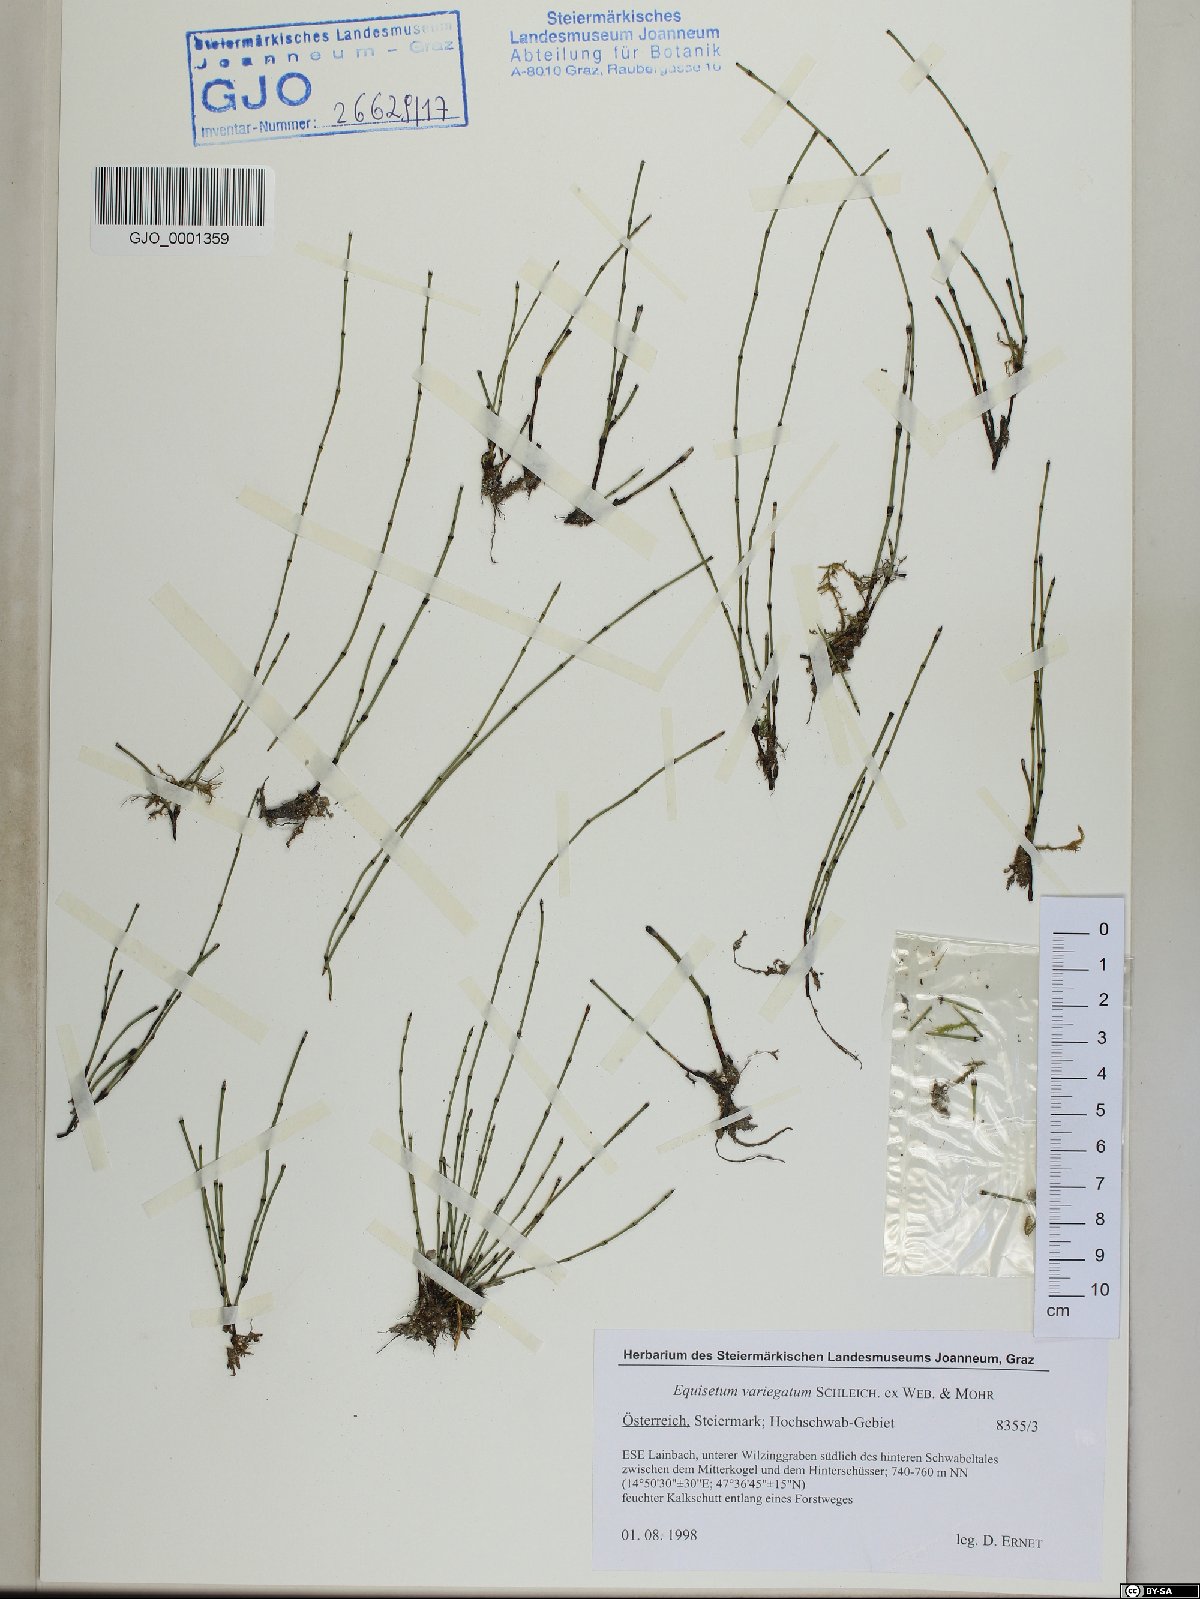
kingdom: Plantae
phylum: Tracheophyta
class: Polypodiopsida
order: Equisetales
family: Equisetaceae
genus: Equisetum
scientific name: Equisetum variegatum
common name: Variegated horsetail
